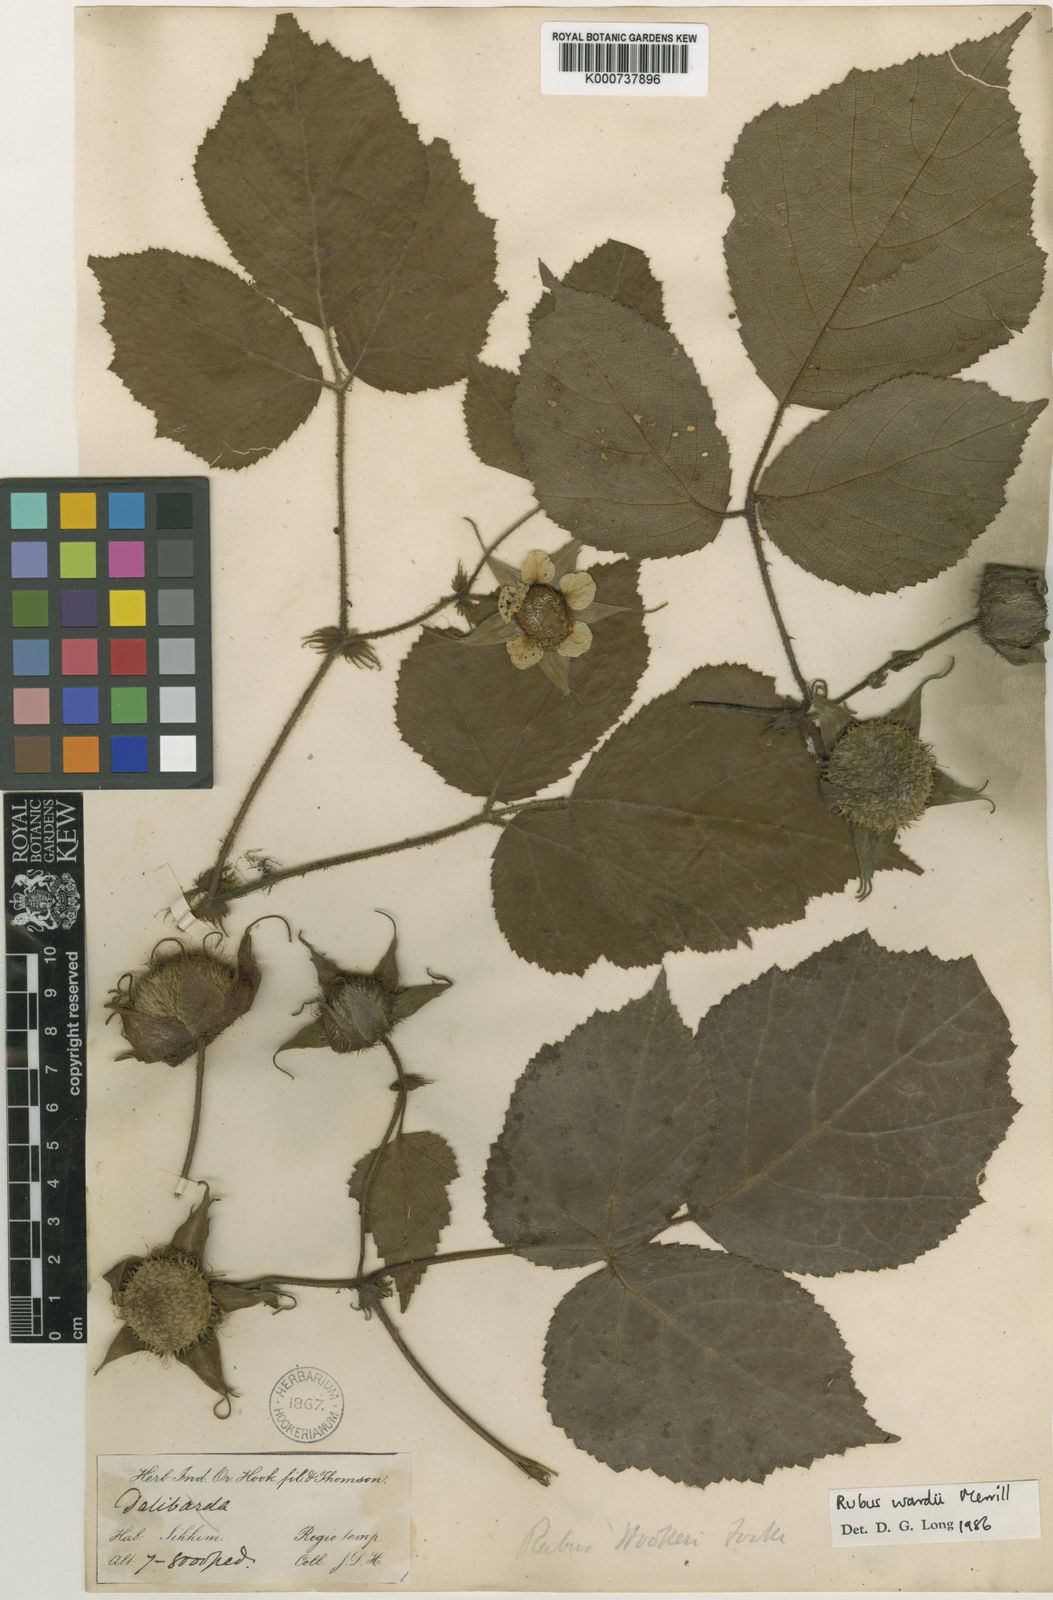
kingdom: Plantae
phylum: Tracheophyta
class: Magnoliopsida
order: Rosales
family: Rosaceae
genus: Rubus
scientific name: Rubus wardii
